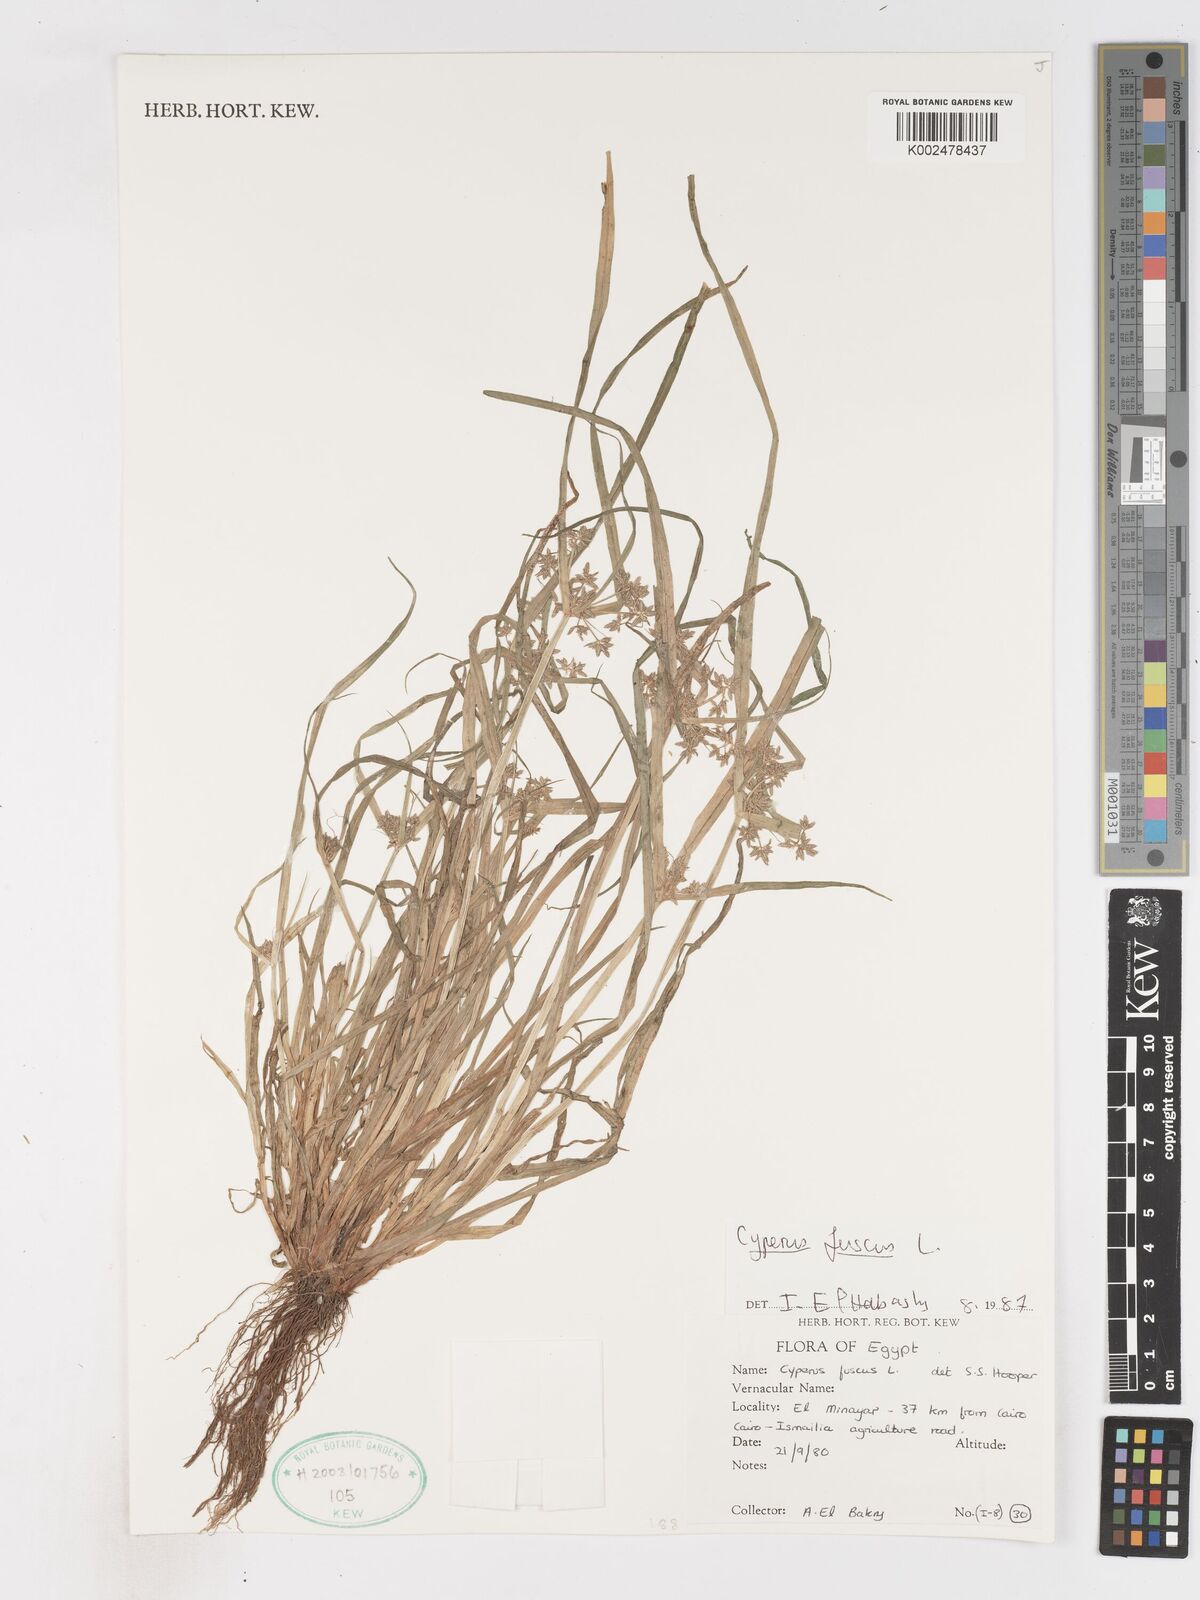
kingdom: Plantae
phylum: Tracheophyta
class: Liliopsida
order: Poales
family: Cyperaceae
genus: Cyperus
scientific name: Cyperus fuscus
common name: Brown galingale
